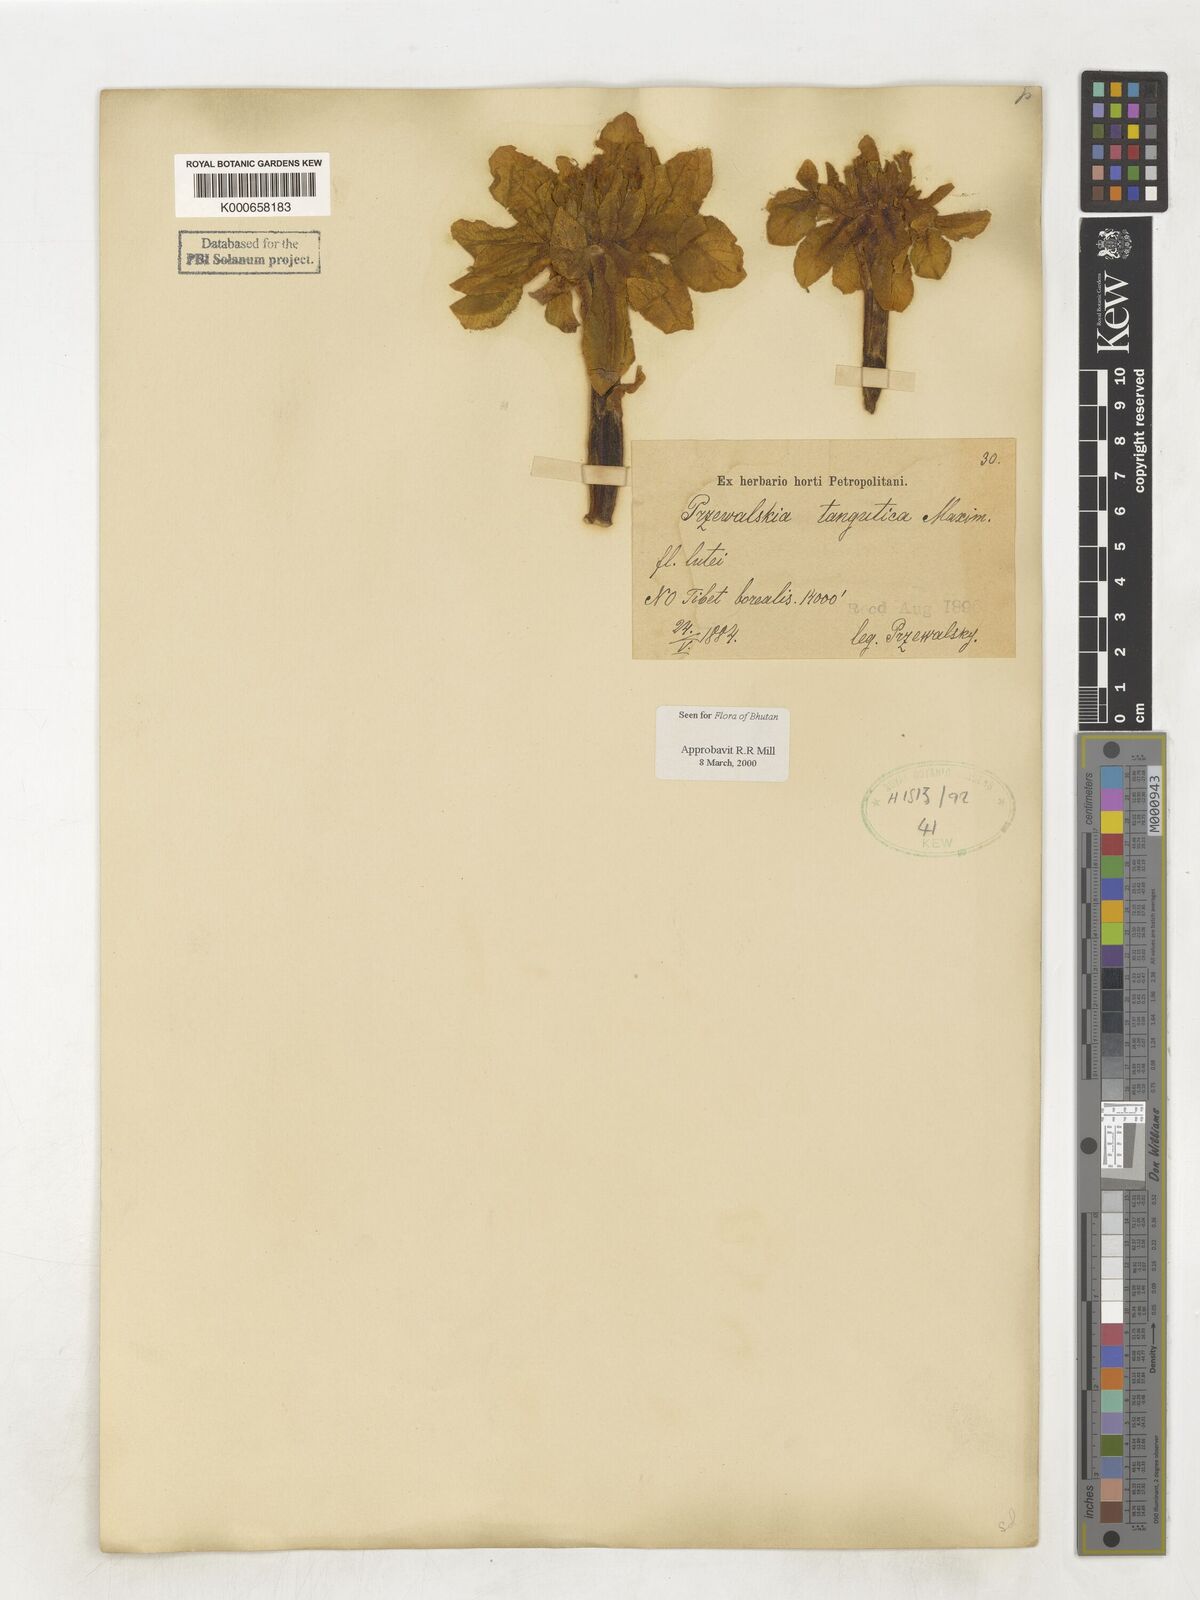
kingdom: Plantae
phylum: Tracheophyta
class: Magnoliopsida
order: Solanales
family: Solanaceae
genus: Przewalskia
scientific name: Przewalskia tangutica
